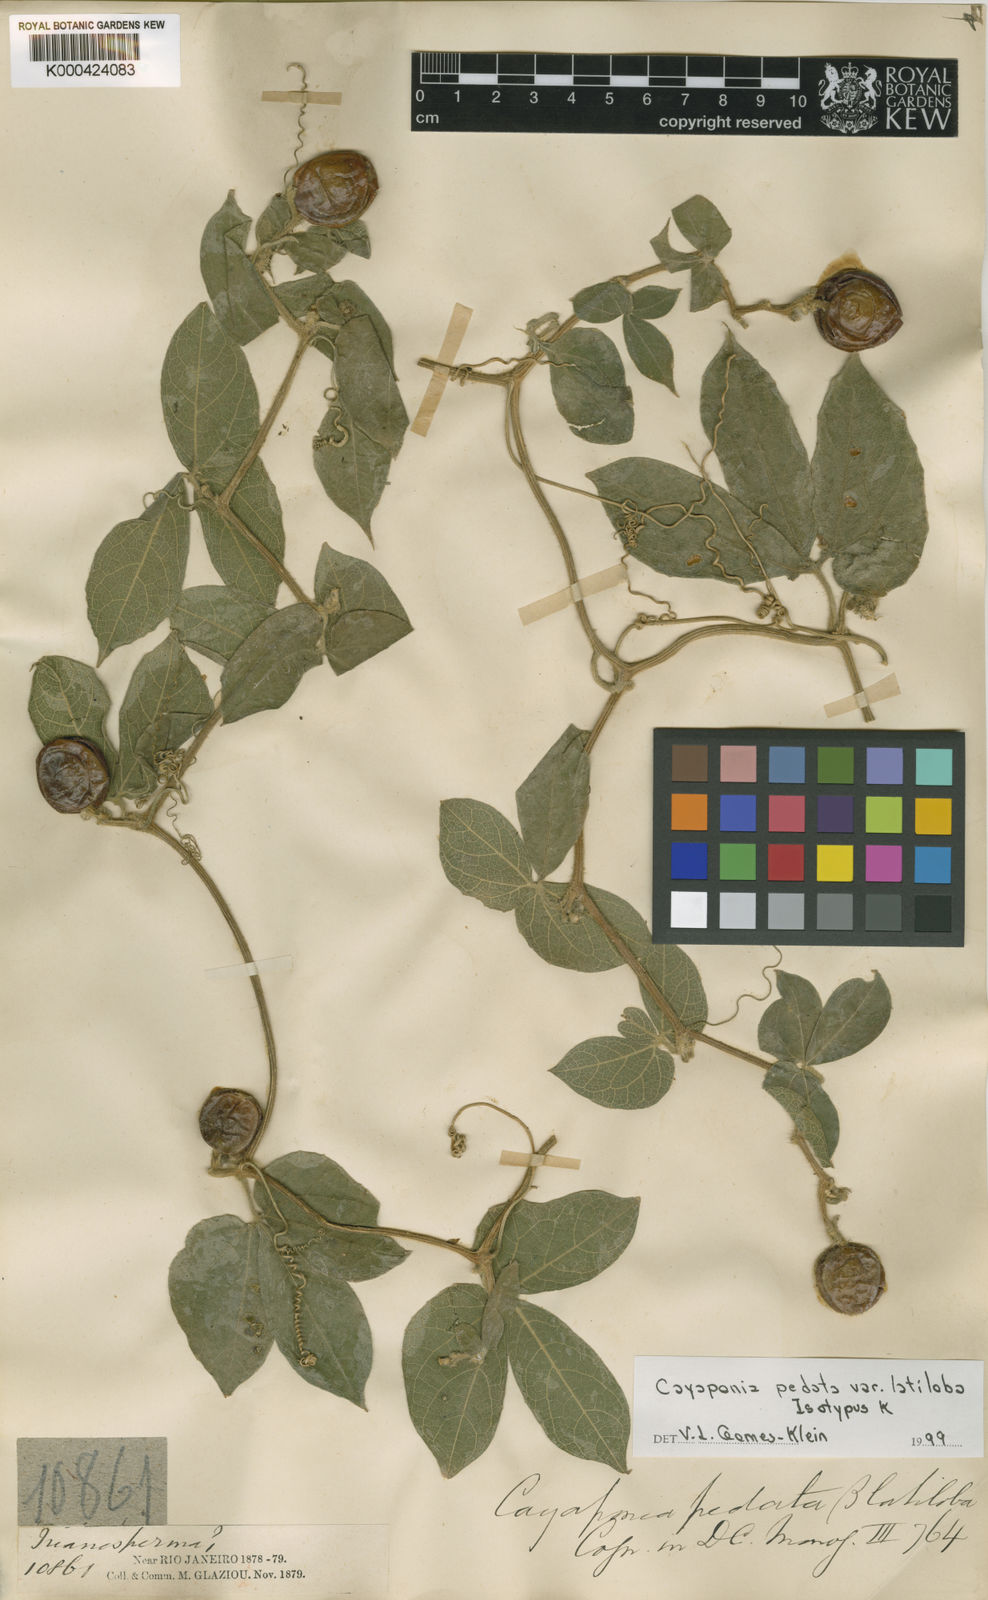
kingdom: Plantae
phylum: Tracheophyta
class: Magnoliopsida
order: Cucurbitales
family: Cucurbitaceae
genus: Cayaponia
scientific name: Cayaponia latiloba
